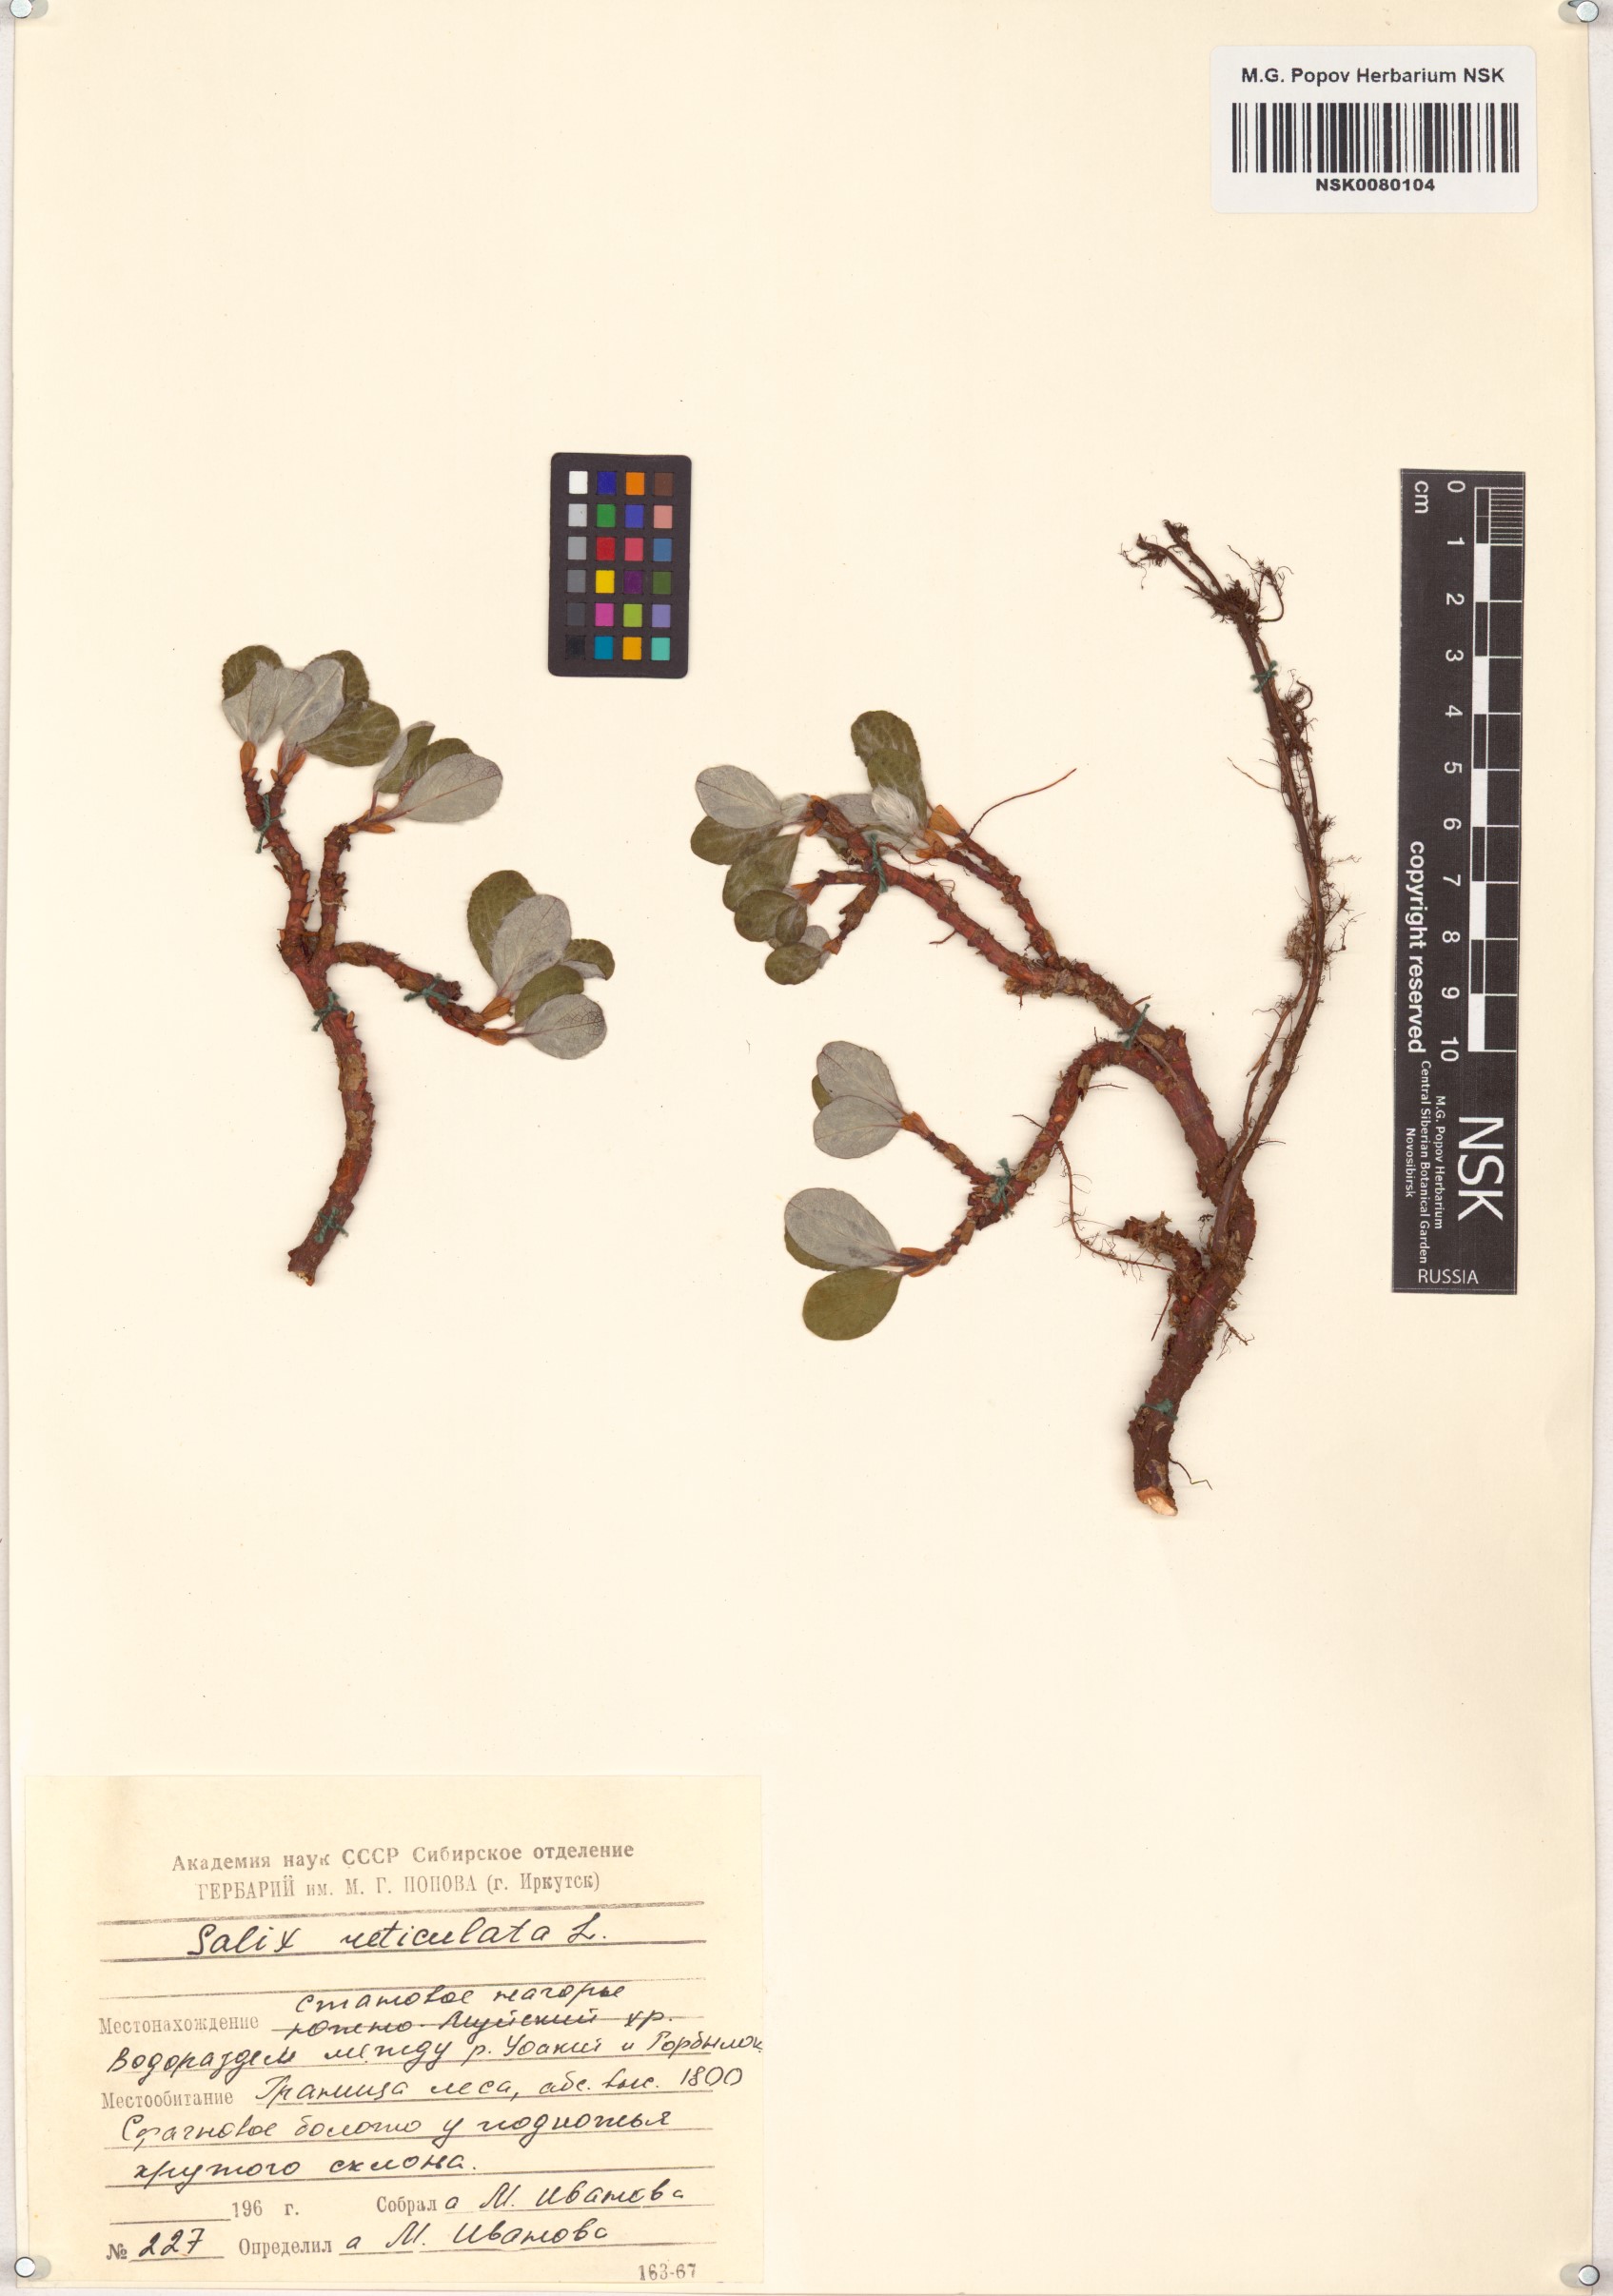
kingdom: Plantae
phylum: Tracheophyta
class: Magnoliopsida
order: Malpighiales
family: Salicaceae
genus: Salix
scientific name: Salix reticulata
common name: Net-leaved willow
